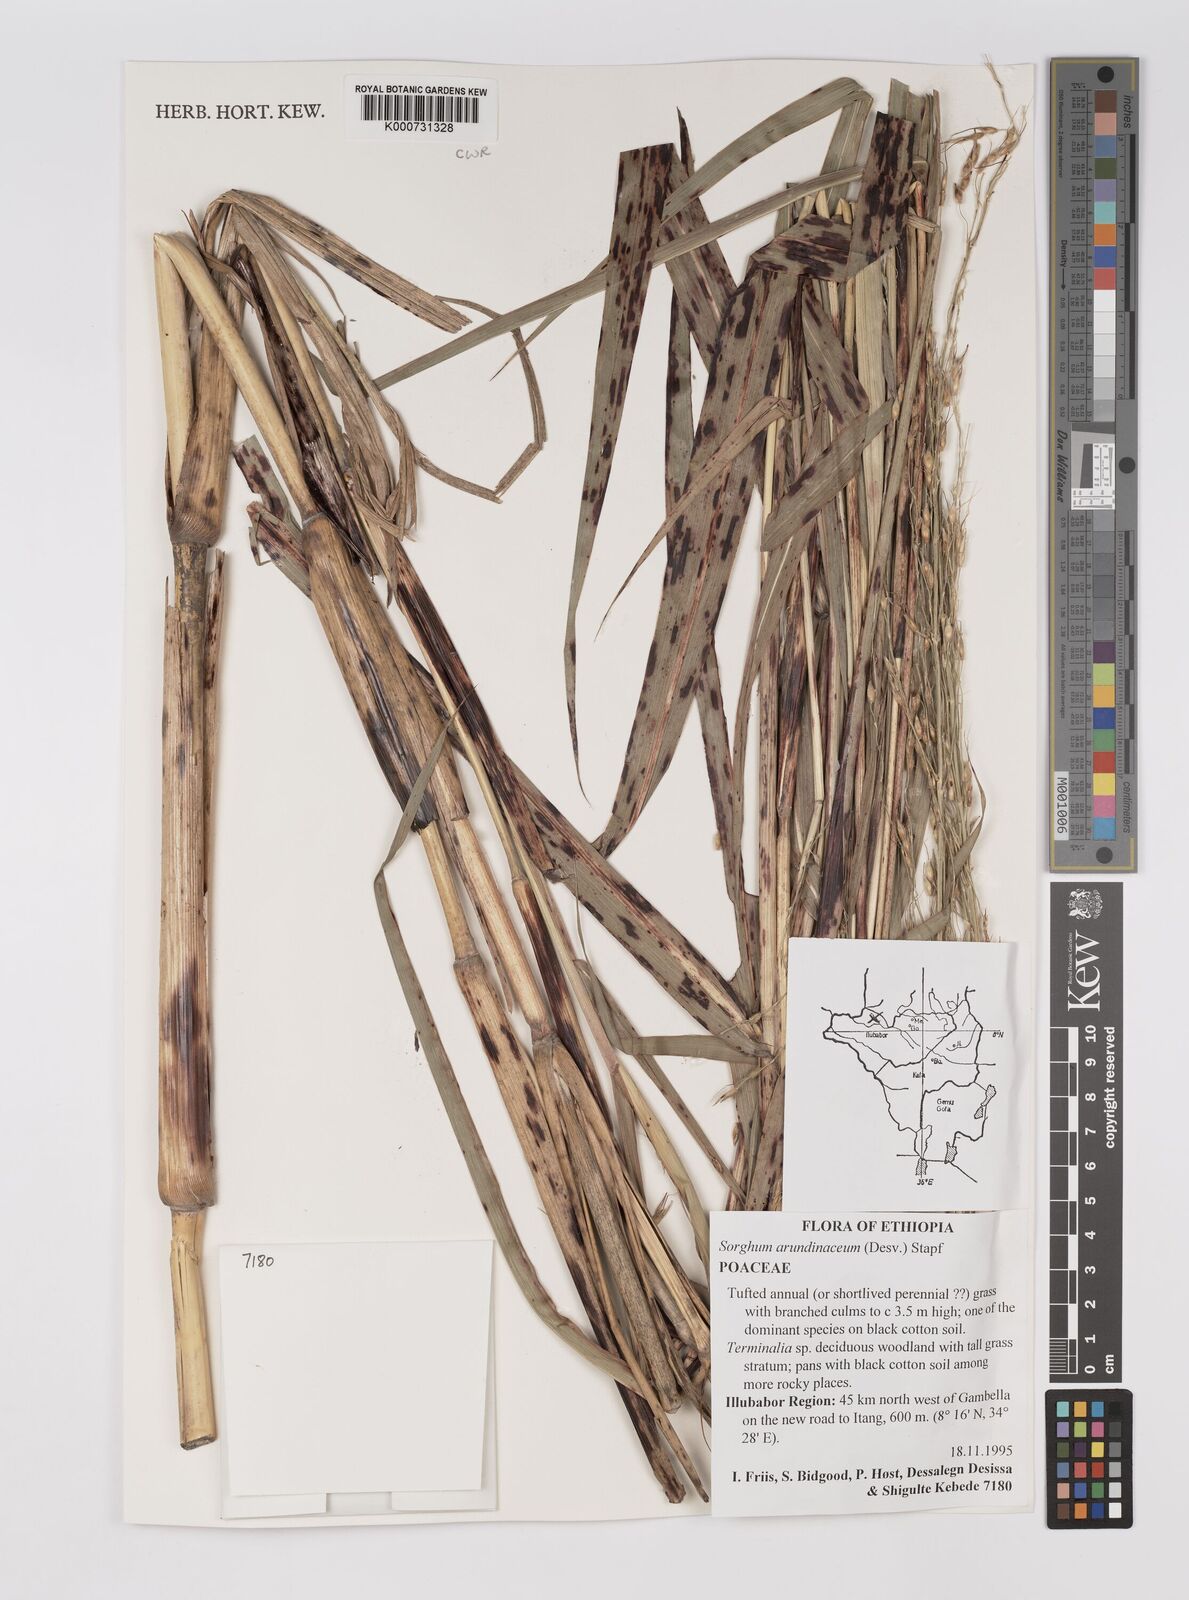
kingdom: Plantae
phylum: Tracheophyta
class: Liliopsida
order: Poales
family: Poaceae
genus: Sorghum
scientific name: Sorghum arundinaceum
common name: Sorghum
